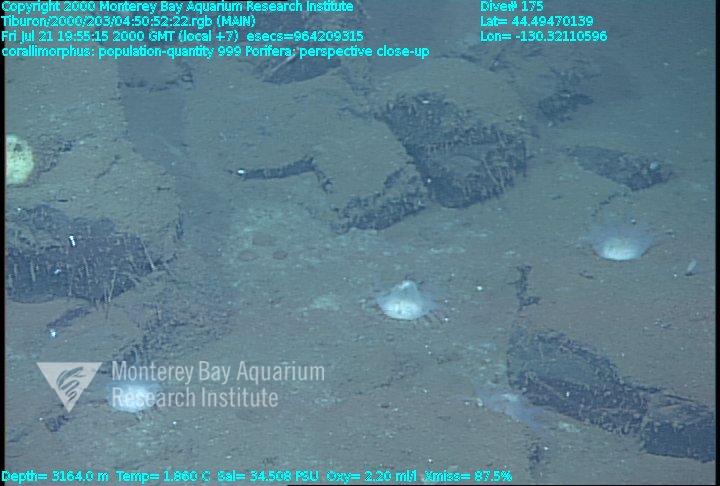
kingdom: Animalia
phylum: Porifera
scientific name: Porifera
